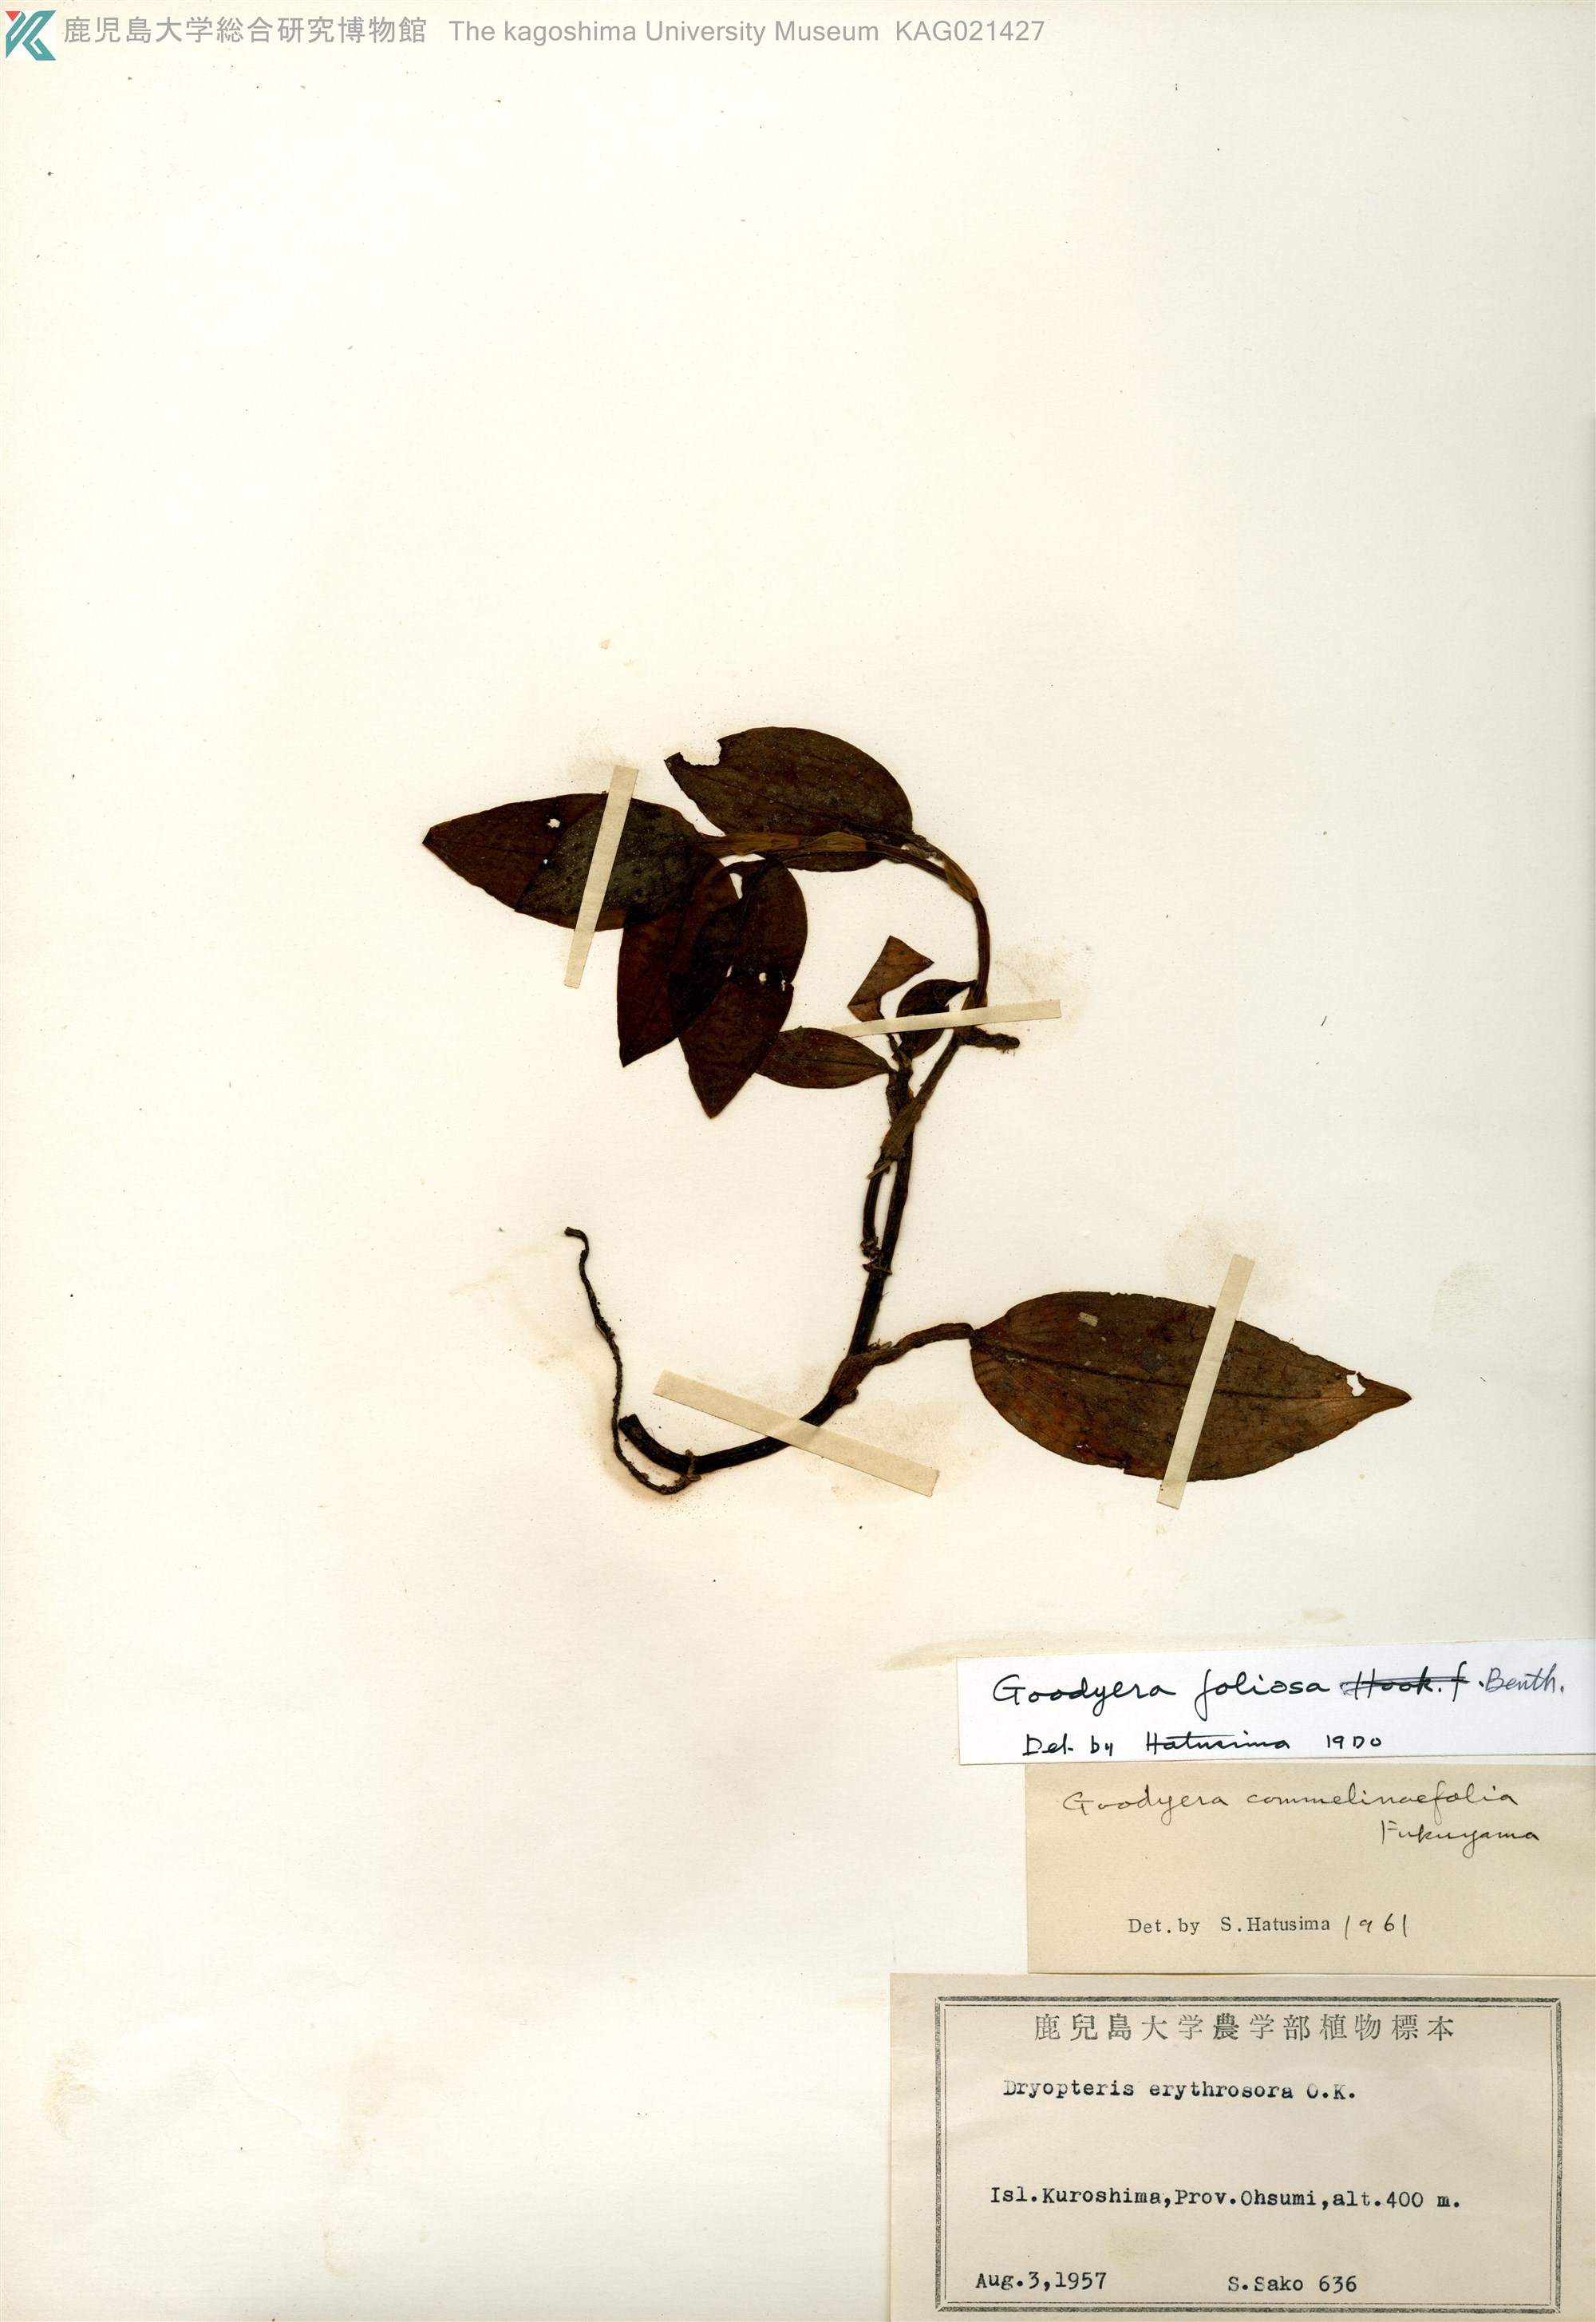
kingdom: Plantae
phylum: Tracheophyta
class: Liliopsida
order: Asparagales
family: Orchidaceae
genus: Goodyera
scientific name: Goodyera foliosa
